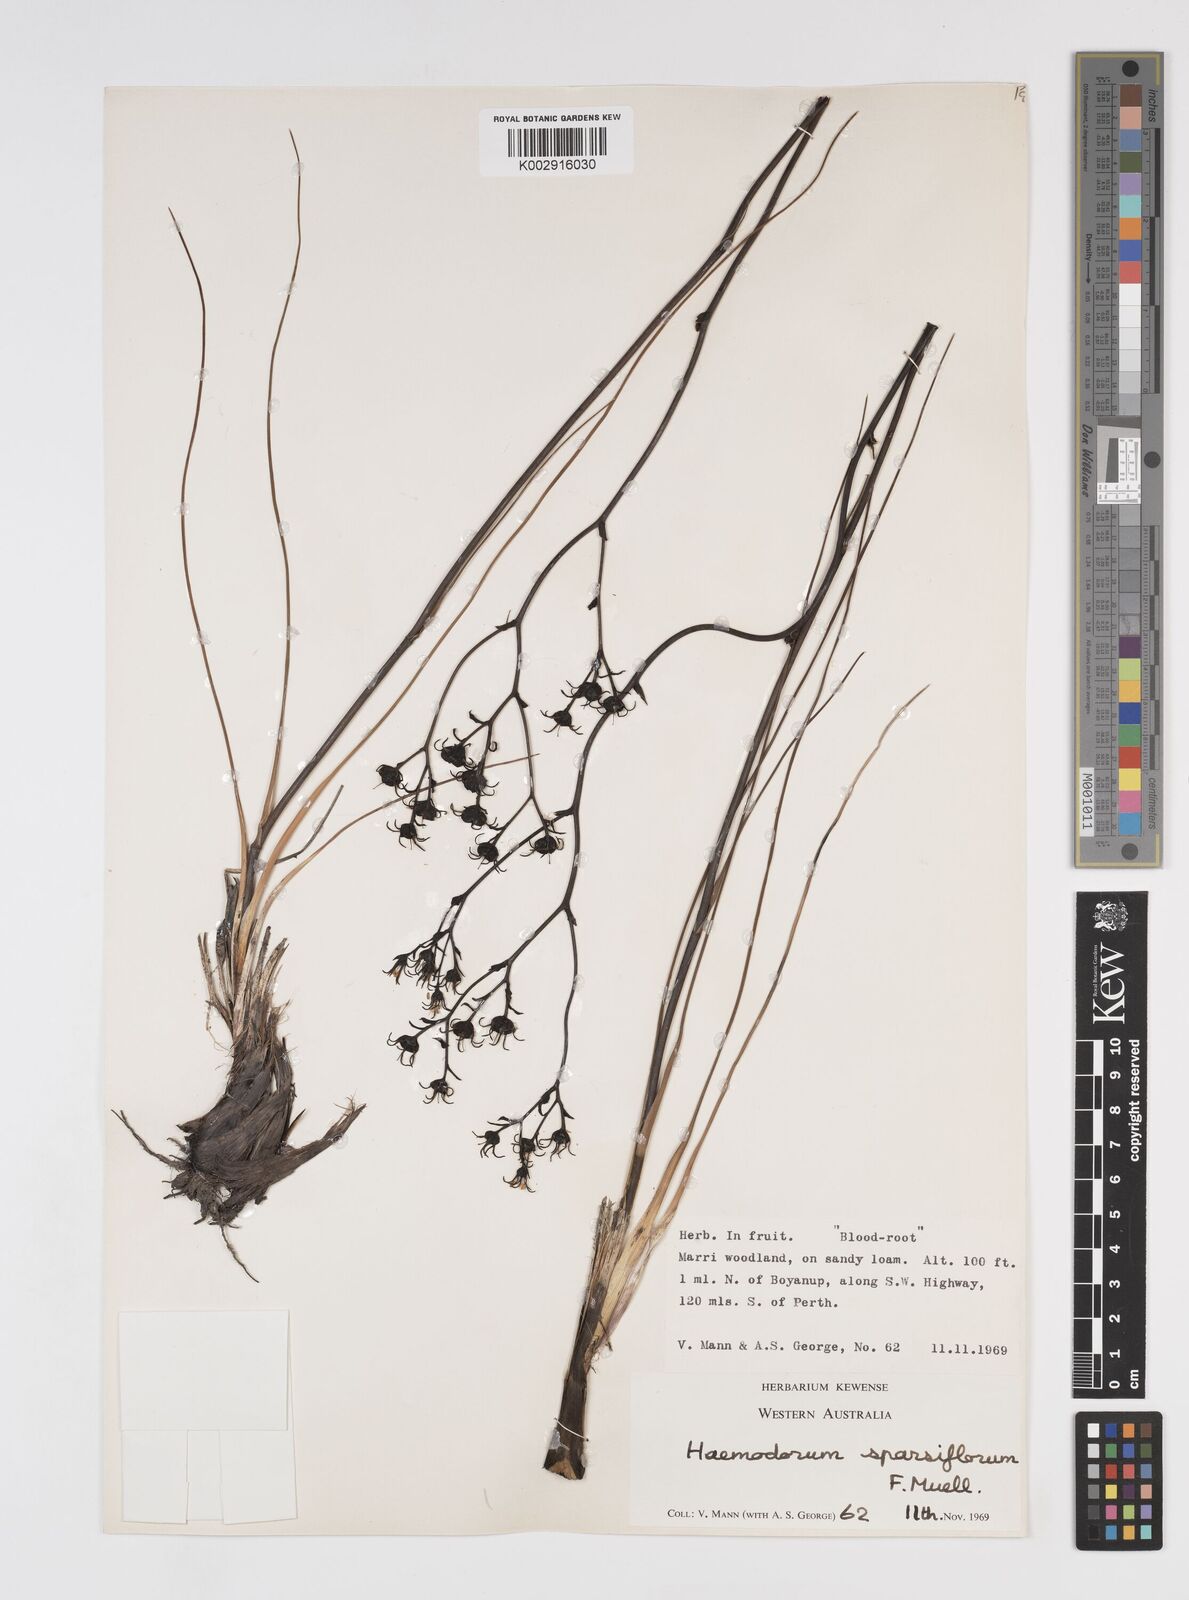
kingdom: Plantae
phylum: Tracheophyta
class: Liliopsida
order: Commelinales
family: Haemodoraceae
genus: Haemodorum
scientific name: Haemodorum sparsiflorum
